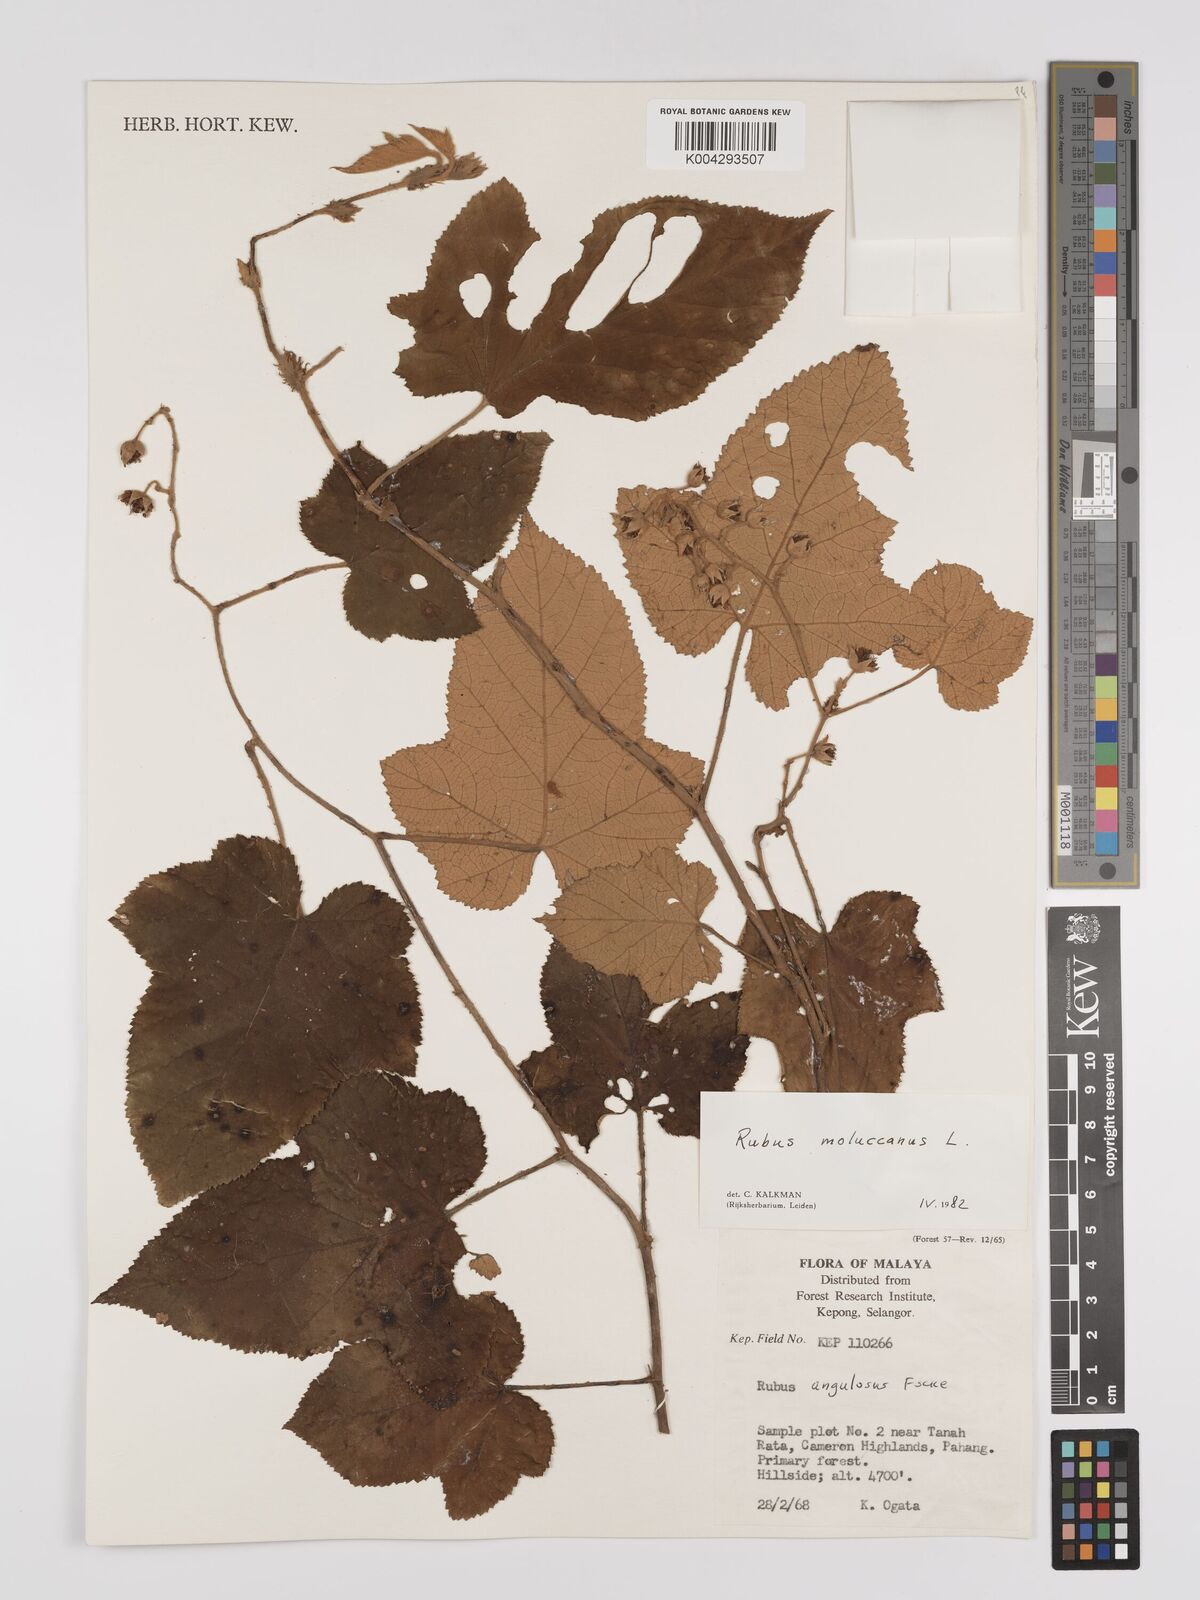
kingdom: Plantae
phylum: Tracheophyta
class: Magnoliopsida
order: Rosales
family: Rosaceae
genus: Rubus
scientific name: Rubus moluccanus
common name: Wild raspberry
